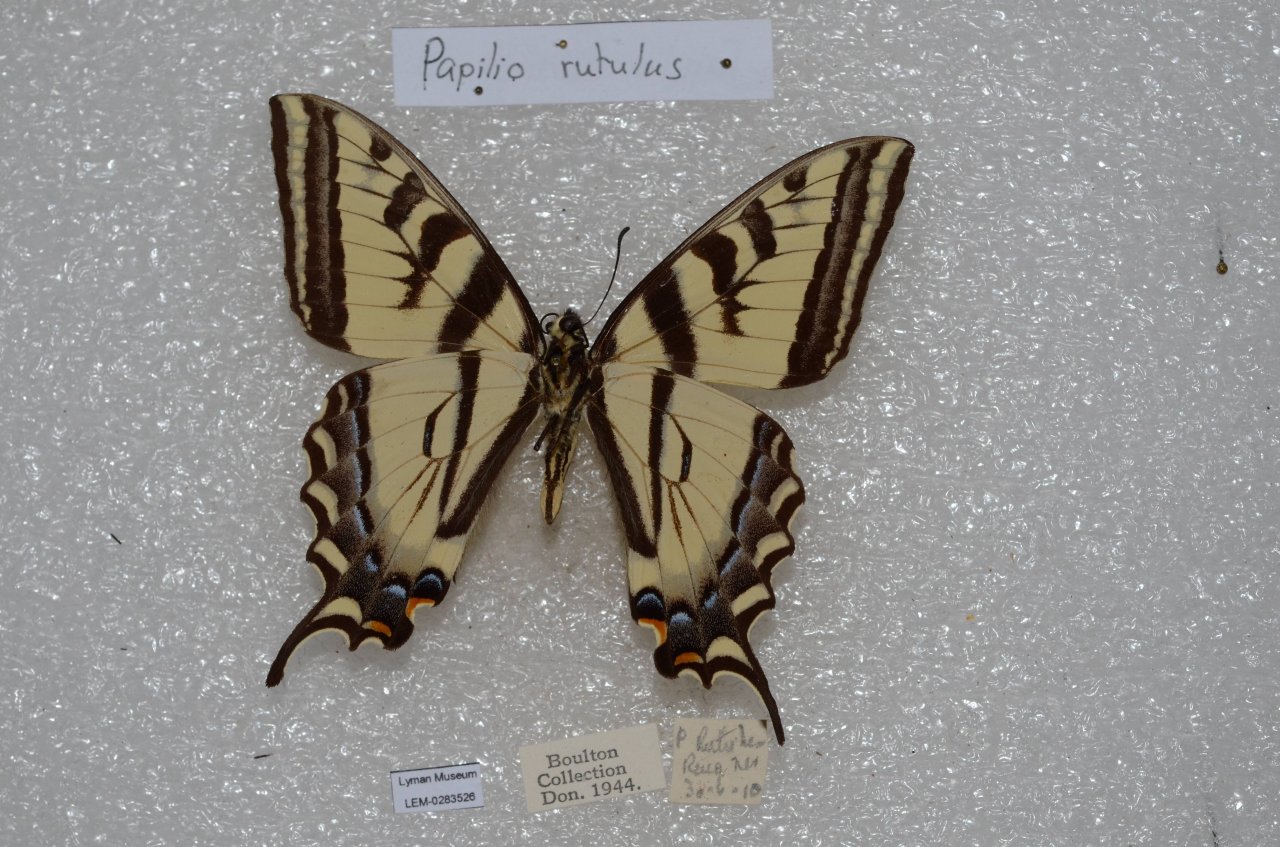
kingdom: Animalia
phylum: Arthropoda
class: Insecta
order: Lepidoptera
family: Papilionidae
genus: Pterourus
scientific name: Pterourus rutulus
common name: Western Tiger Swallowtail
